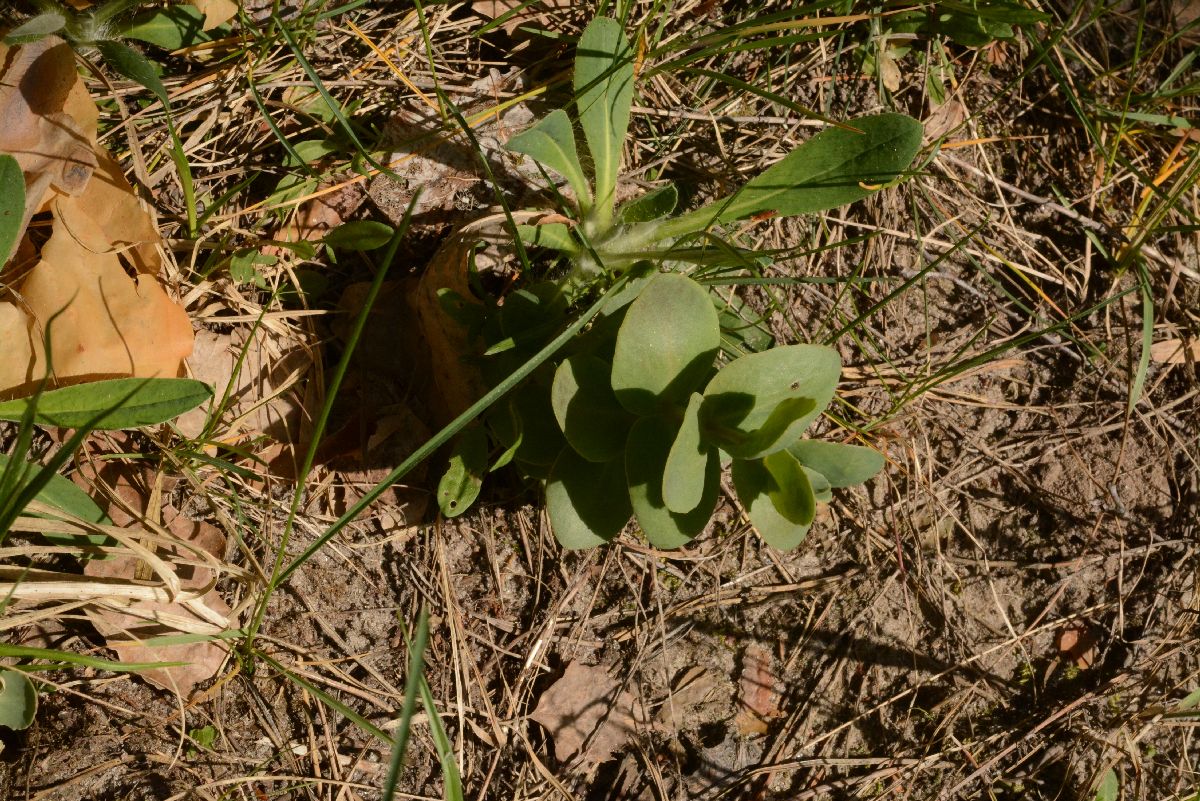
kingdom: Plantae
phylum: Tracheophyta
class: Magnoliopsida
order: Saxifragales
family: Crassulaceae
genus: Hylotelephium
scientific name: Hylotelephium maximum
